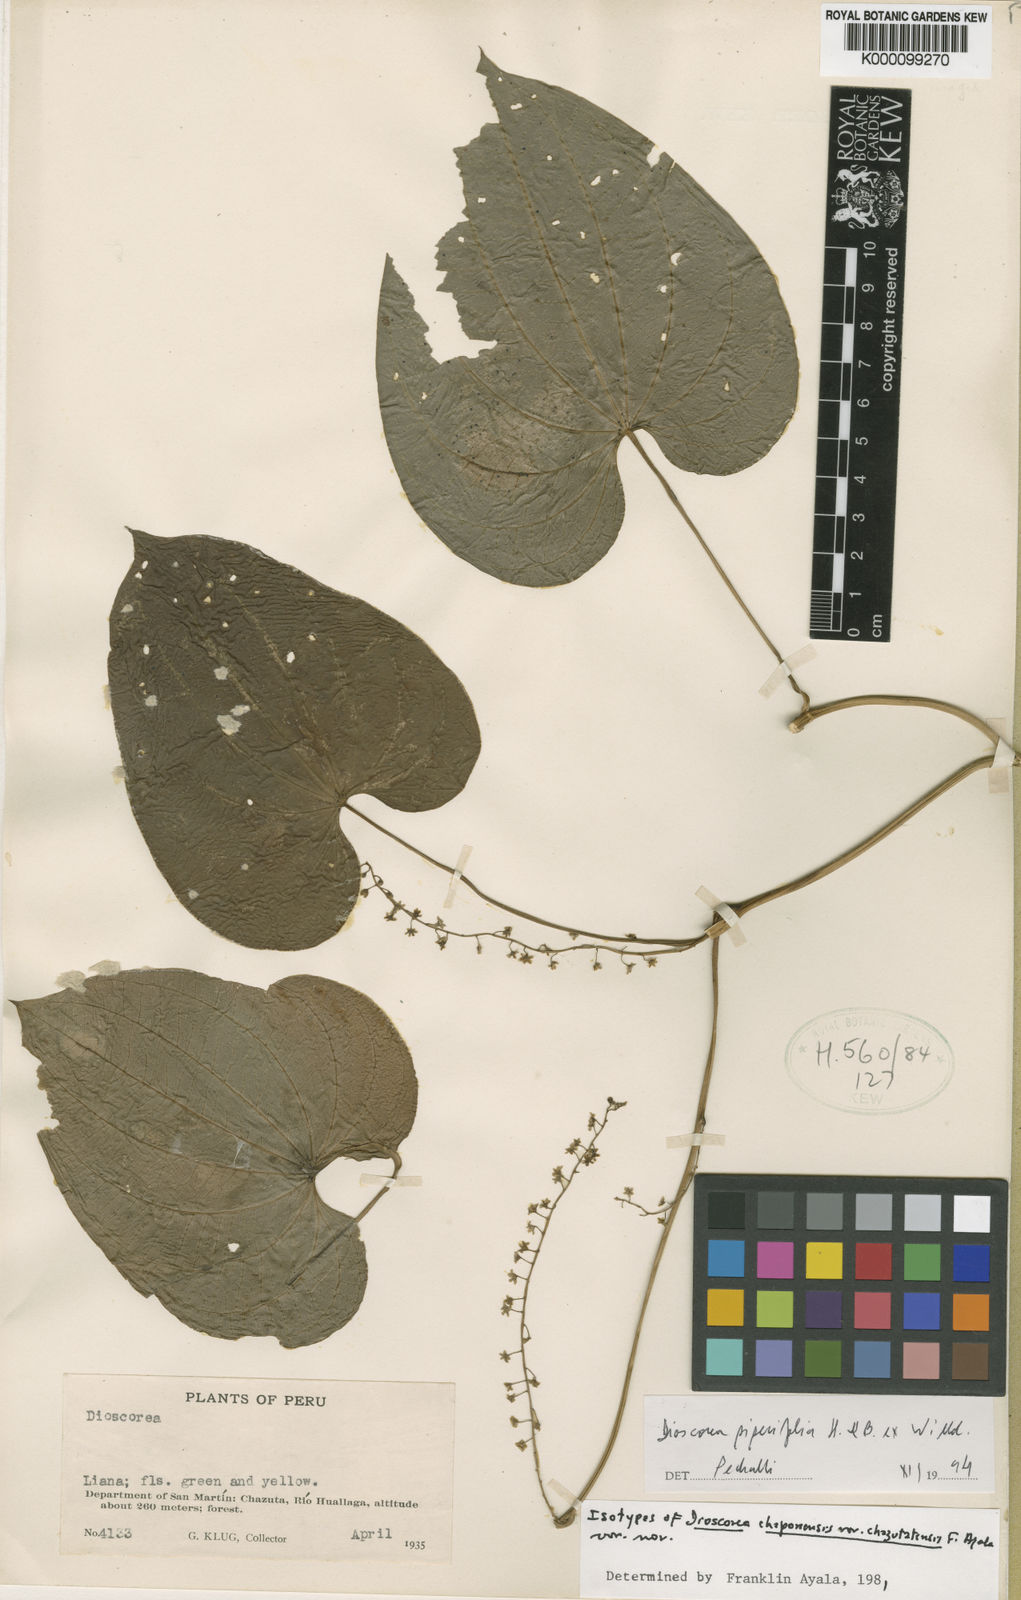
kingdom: Plantae
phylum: Tracheophyta
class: Liliopsida
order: Dioscoreales
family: Dioscoreaceae
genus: Dioscorea
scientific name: Dioscorea chaponensis
